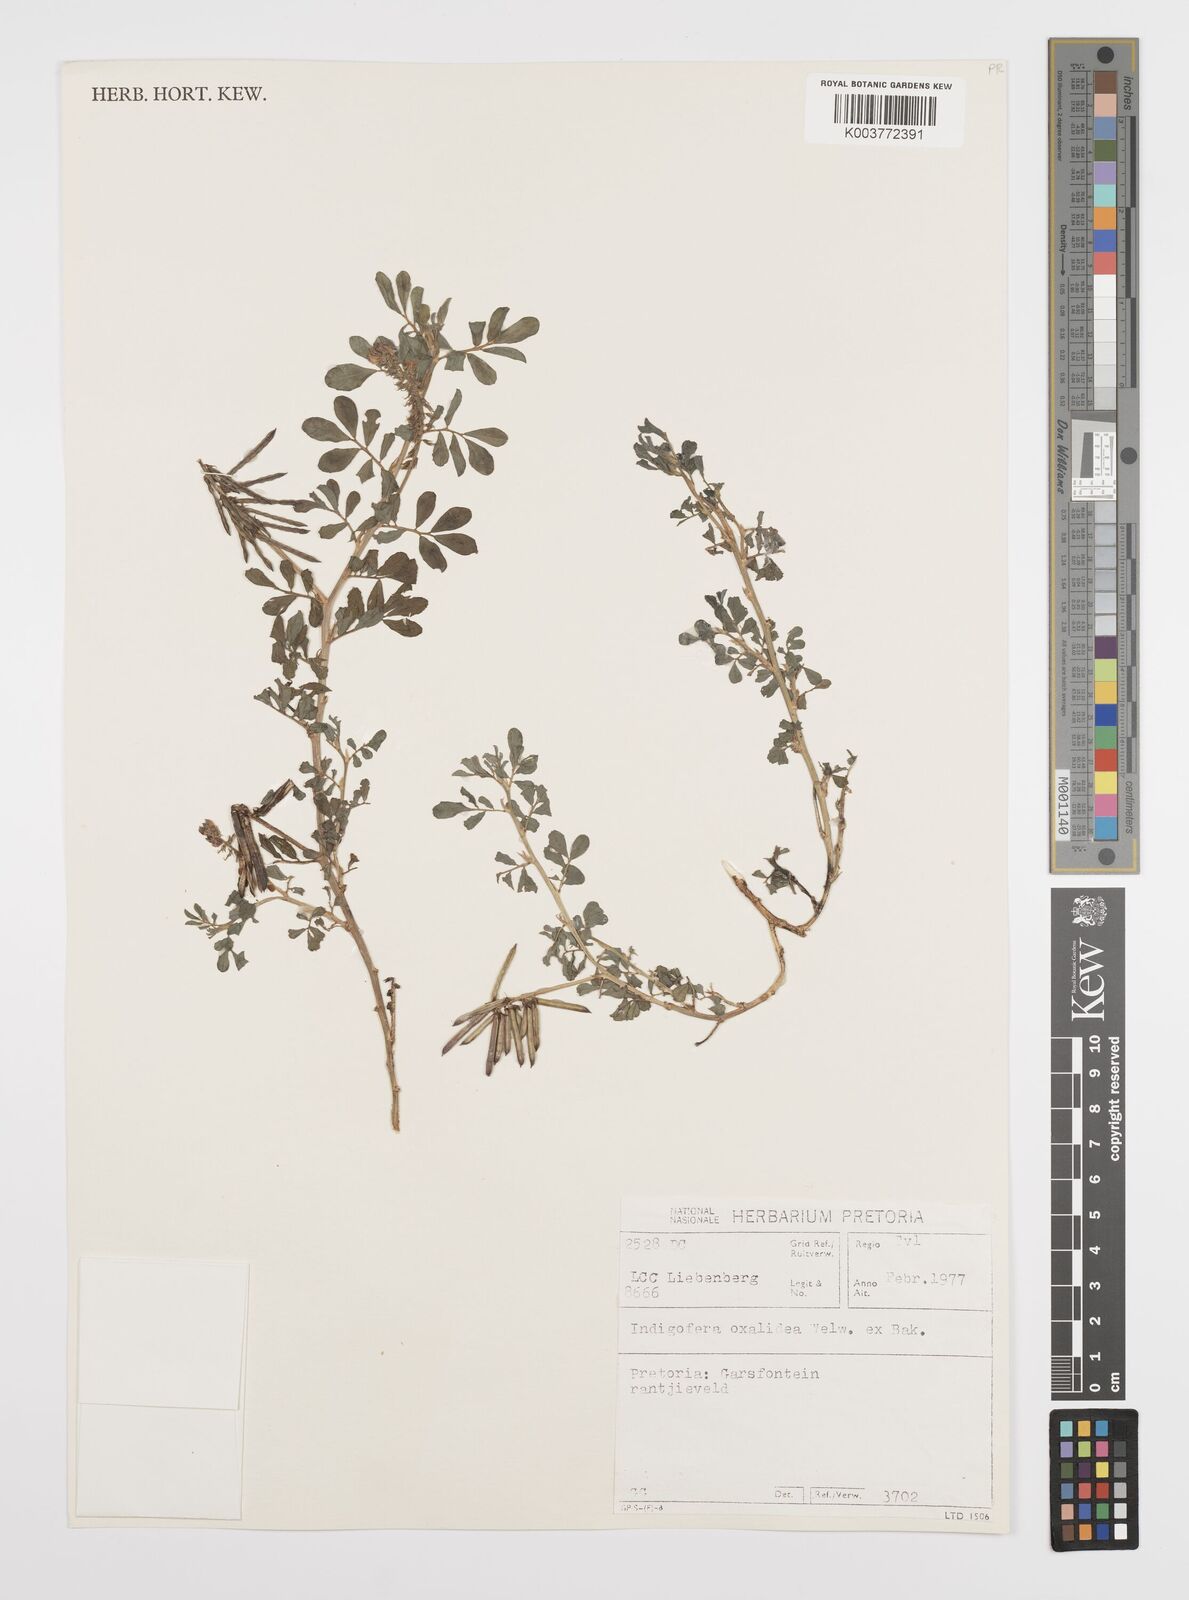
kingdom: Plantae
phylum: Tracheophyta
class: Magnoliopsida
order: Fabales
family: Fabaceae
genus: Indigofera
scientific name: Indigofera spicata
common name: Creeping indigo
